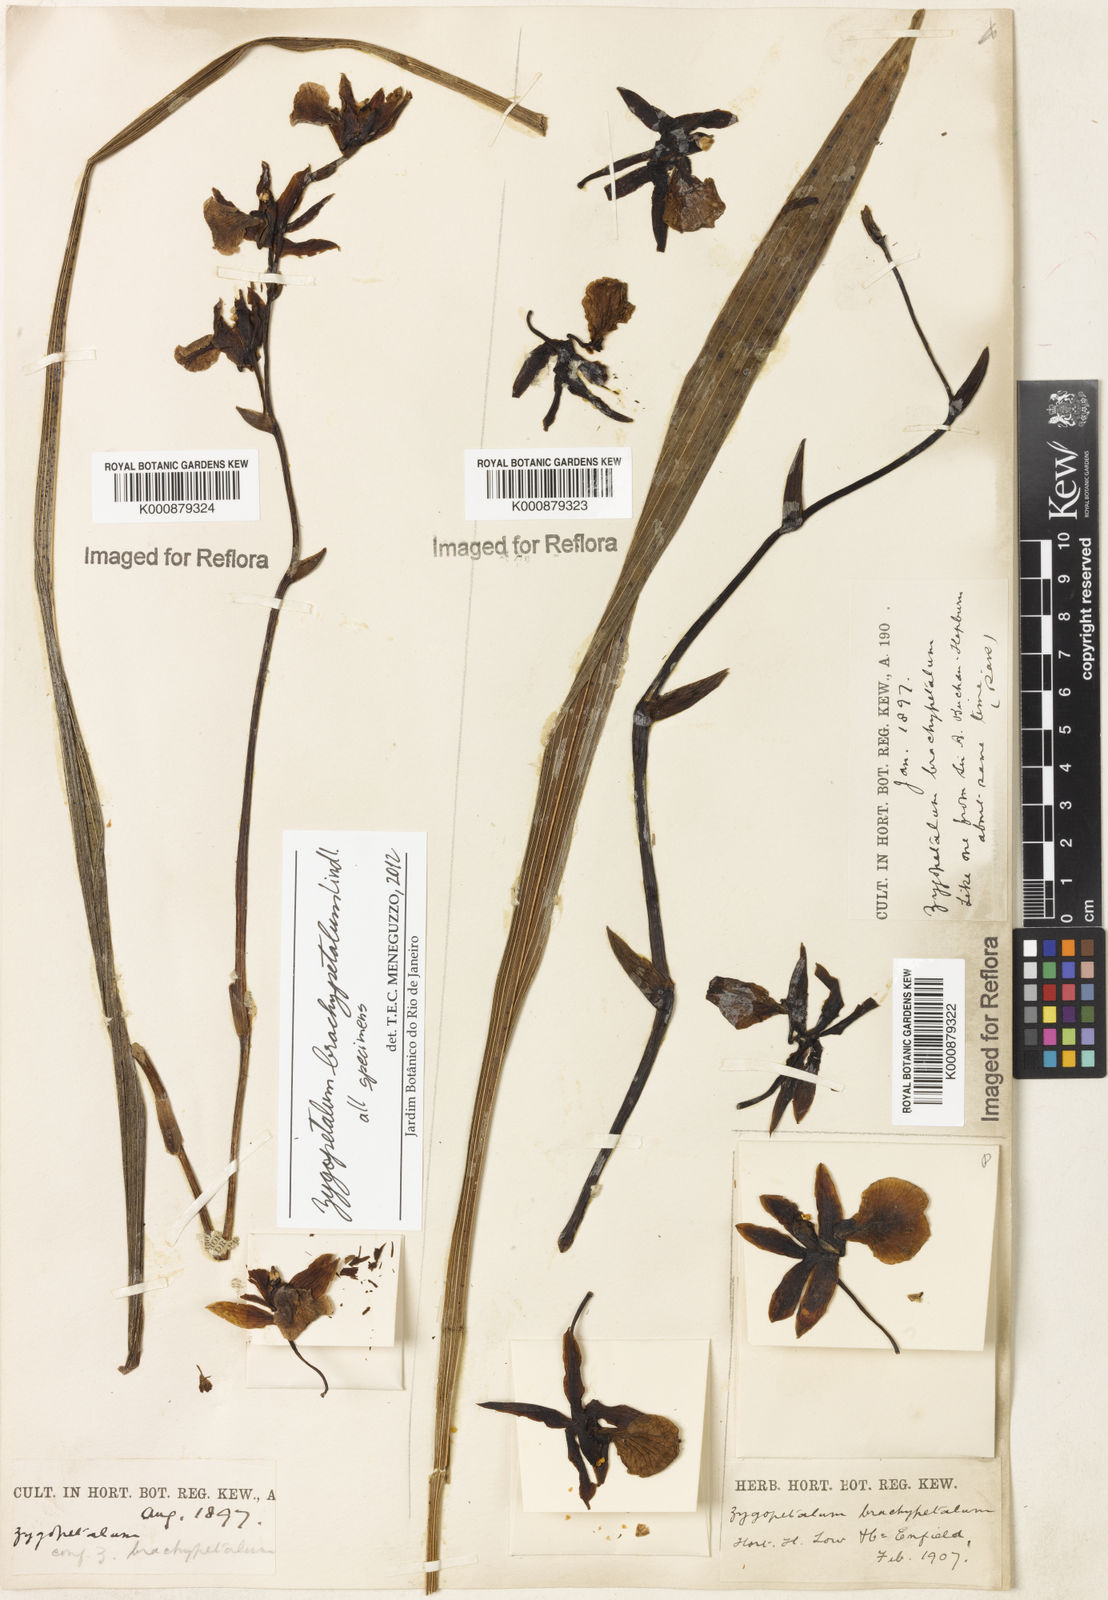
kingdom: Plantae
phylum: Tracheophyta
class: Liliopsida
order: Asparagales
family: Orchidaceae
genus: Zygopetalum
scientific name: Zygopetalum brachypetalum
